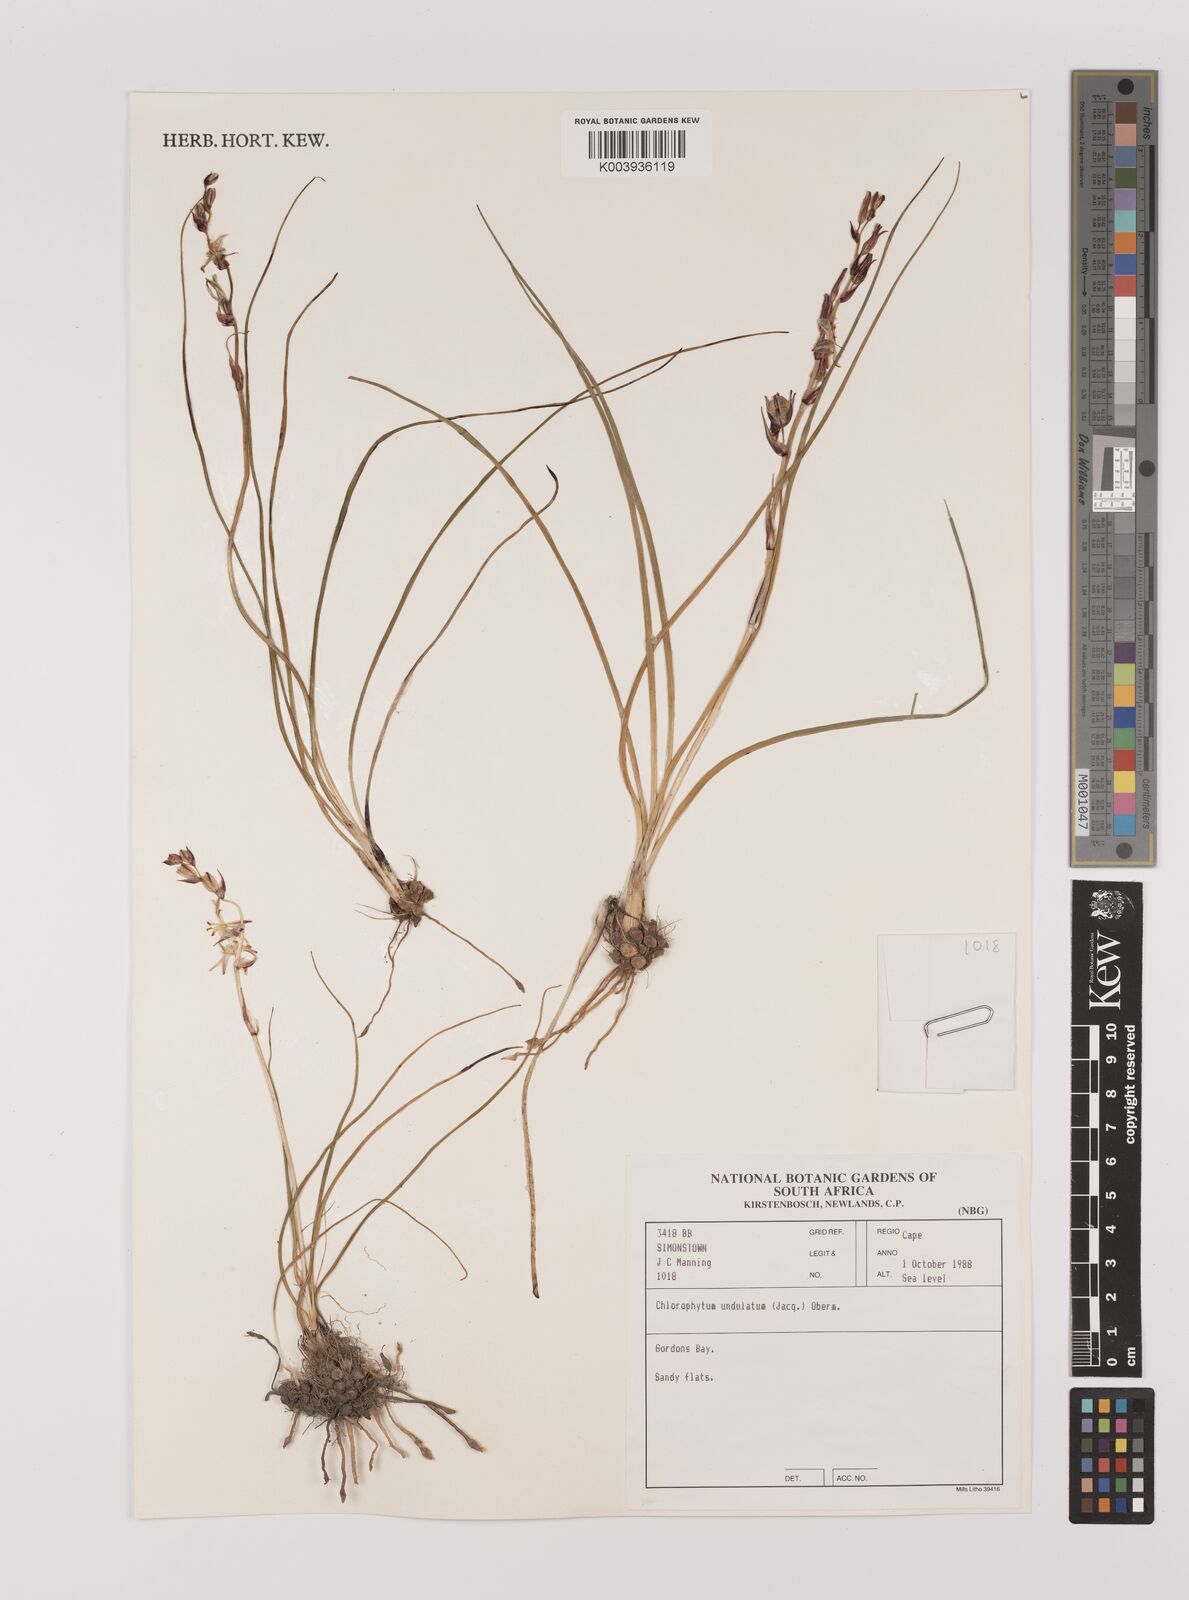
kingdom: Plantae
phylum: Tracheophyta
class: Liliopsida
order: Asparagales
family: Asparagaceae
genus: Chlorophytum
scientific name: Chlorophytum graminifolium
